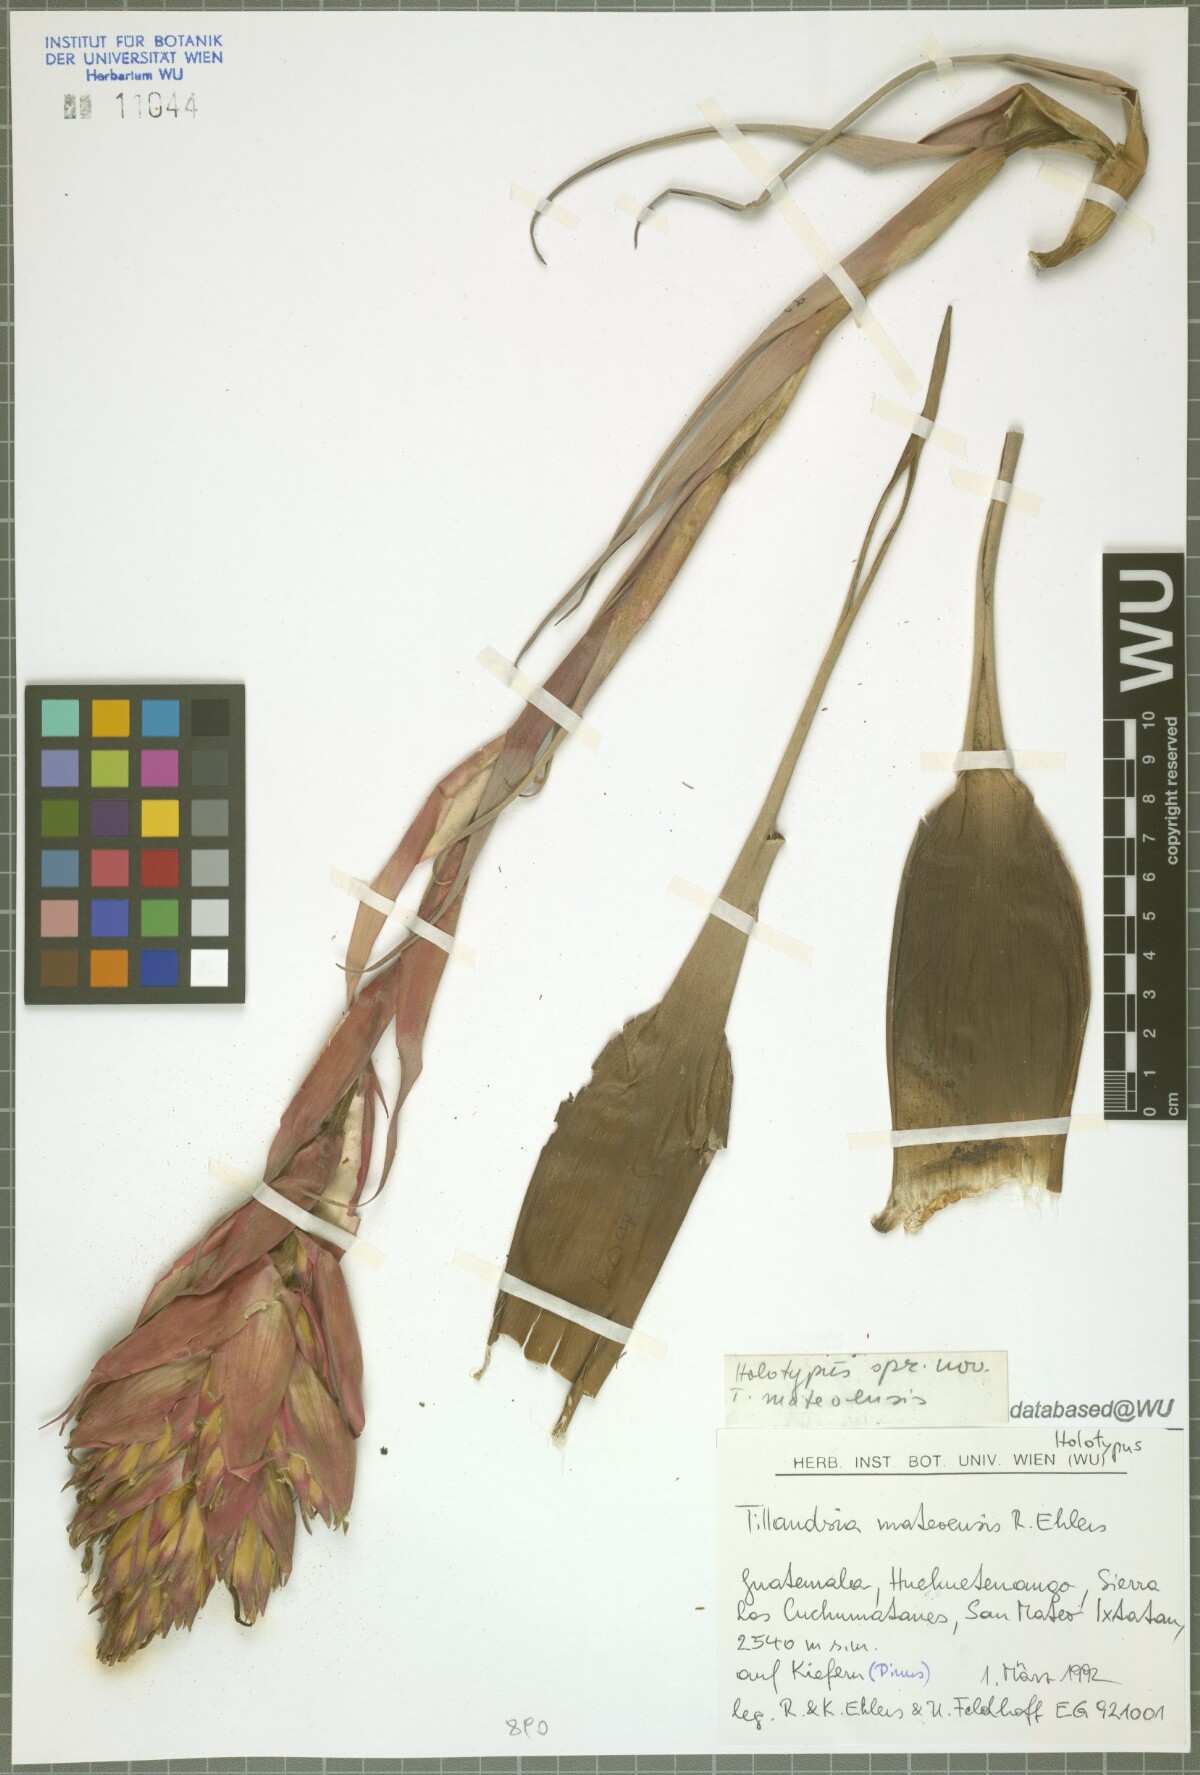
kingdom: Plantae
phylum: Tracheophyta
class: Liliopsida
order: Poales
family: Bromeliaceae
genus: Tillandsia
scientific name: Tillandsia mateoensis
